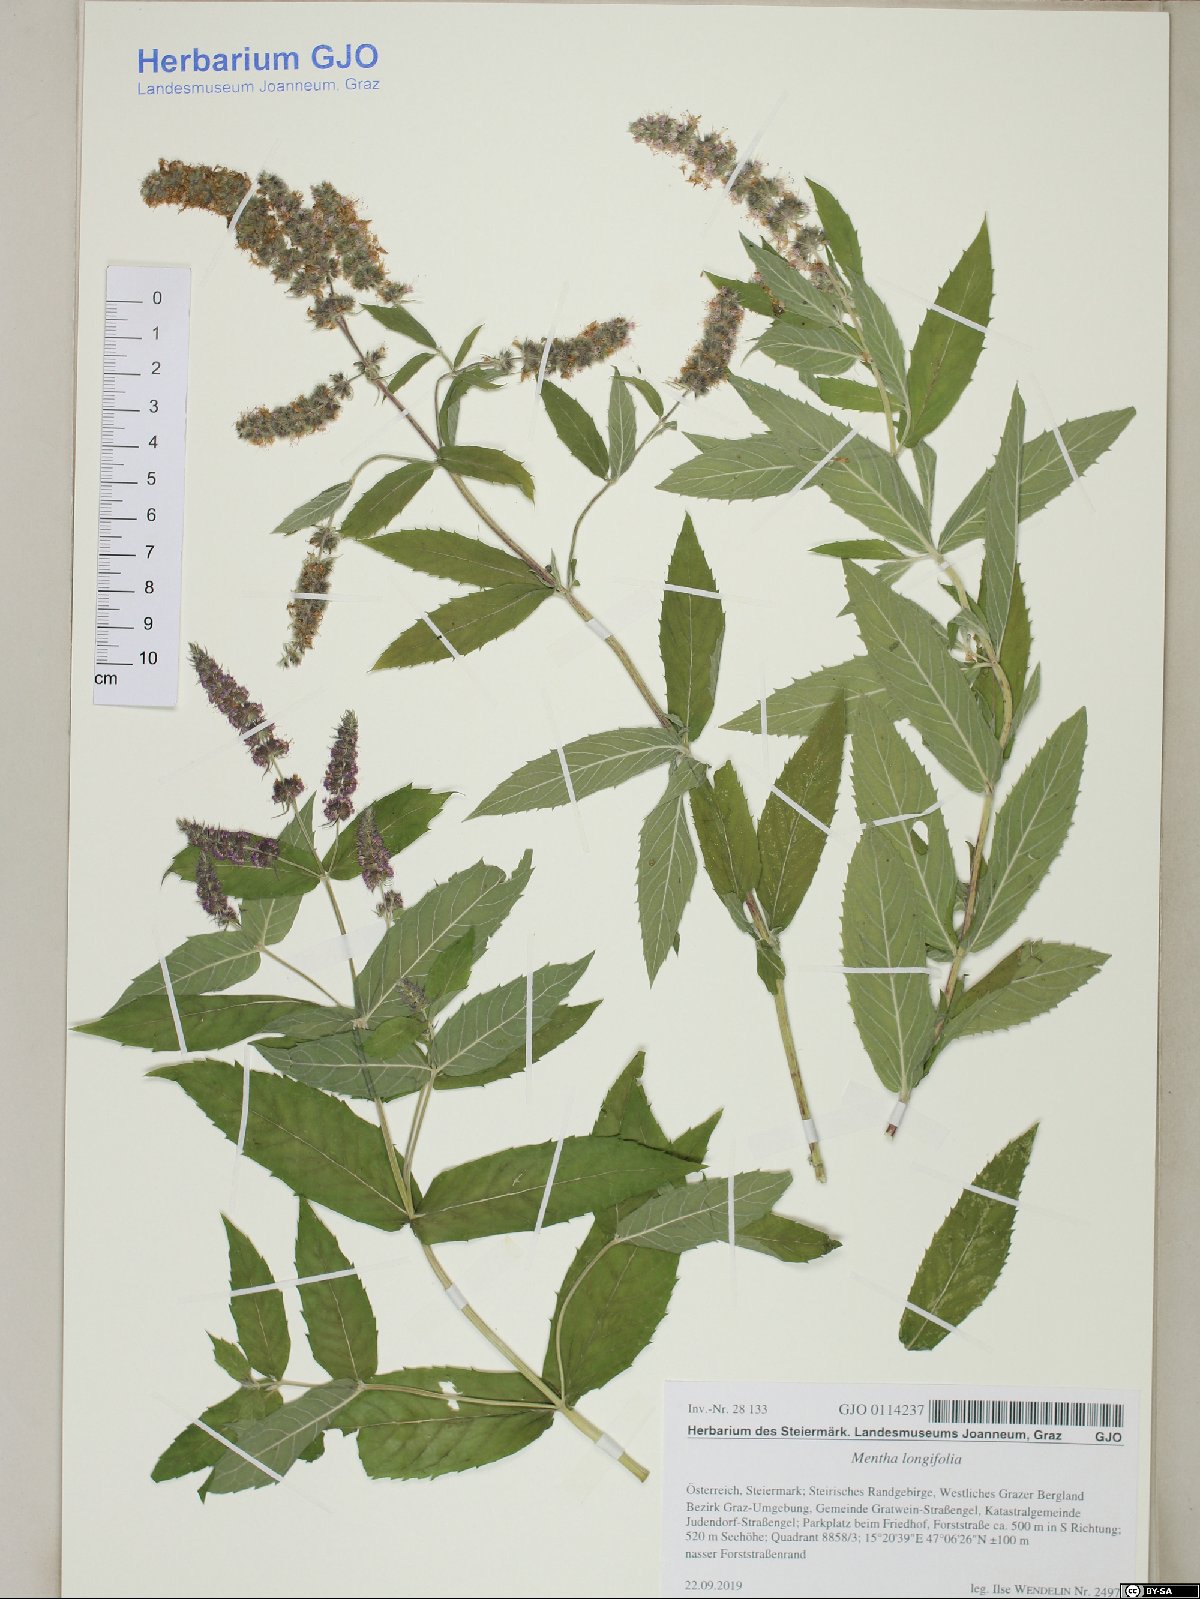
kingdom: Plantae
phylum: Tracheophyta
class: Magnoliopsida
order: Lamiales
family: Lamiaceae
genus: Mentha
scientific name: Mentha longifolia
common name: Horse mint
